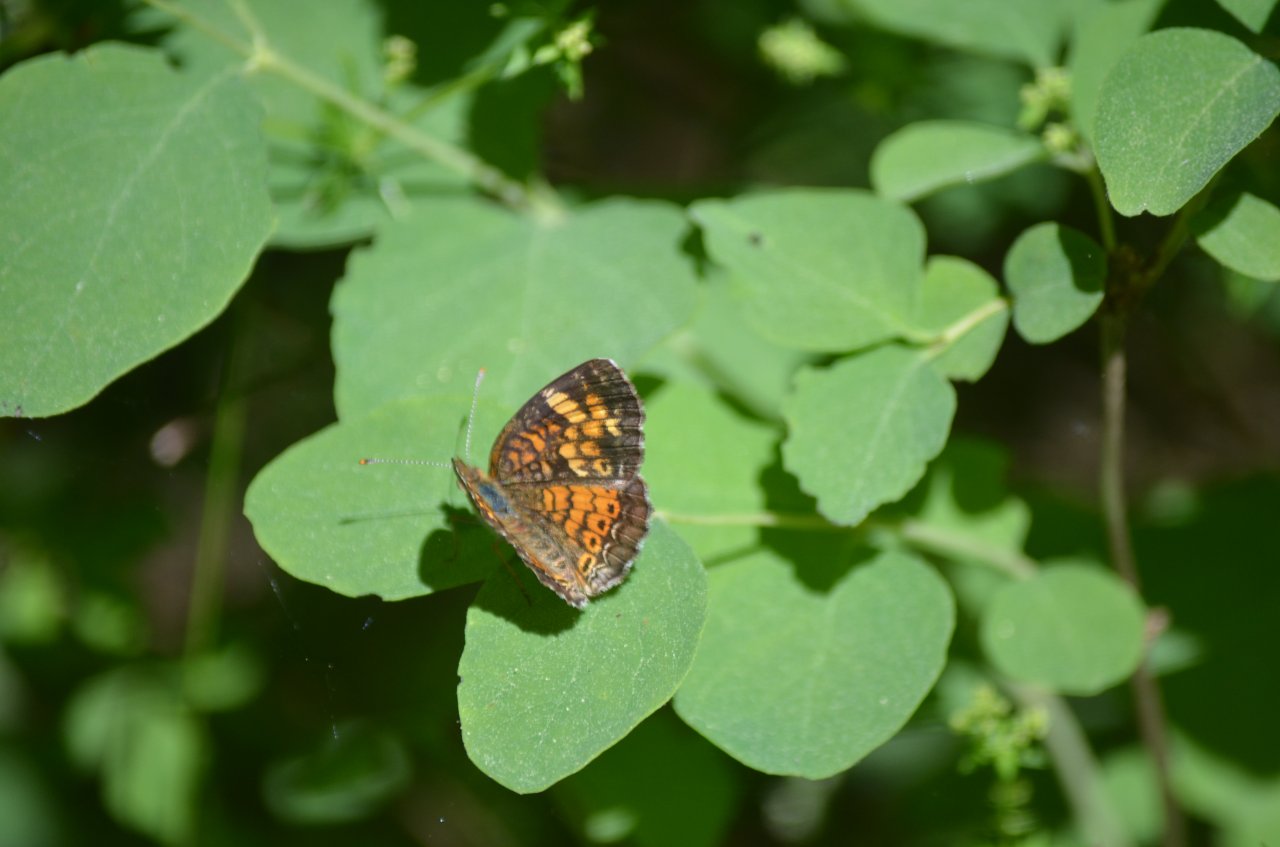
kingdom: Animalia
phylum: Arthropoda
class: Insecta
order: Lepidoptera
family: Nymphalidae
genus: Phyciodes
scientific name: Phyciodes tharos
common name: Pearl Crescent
